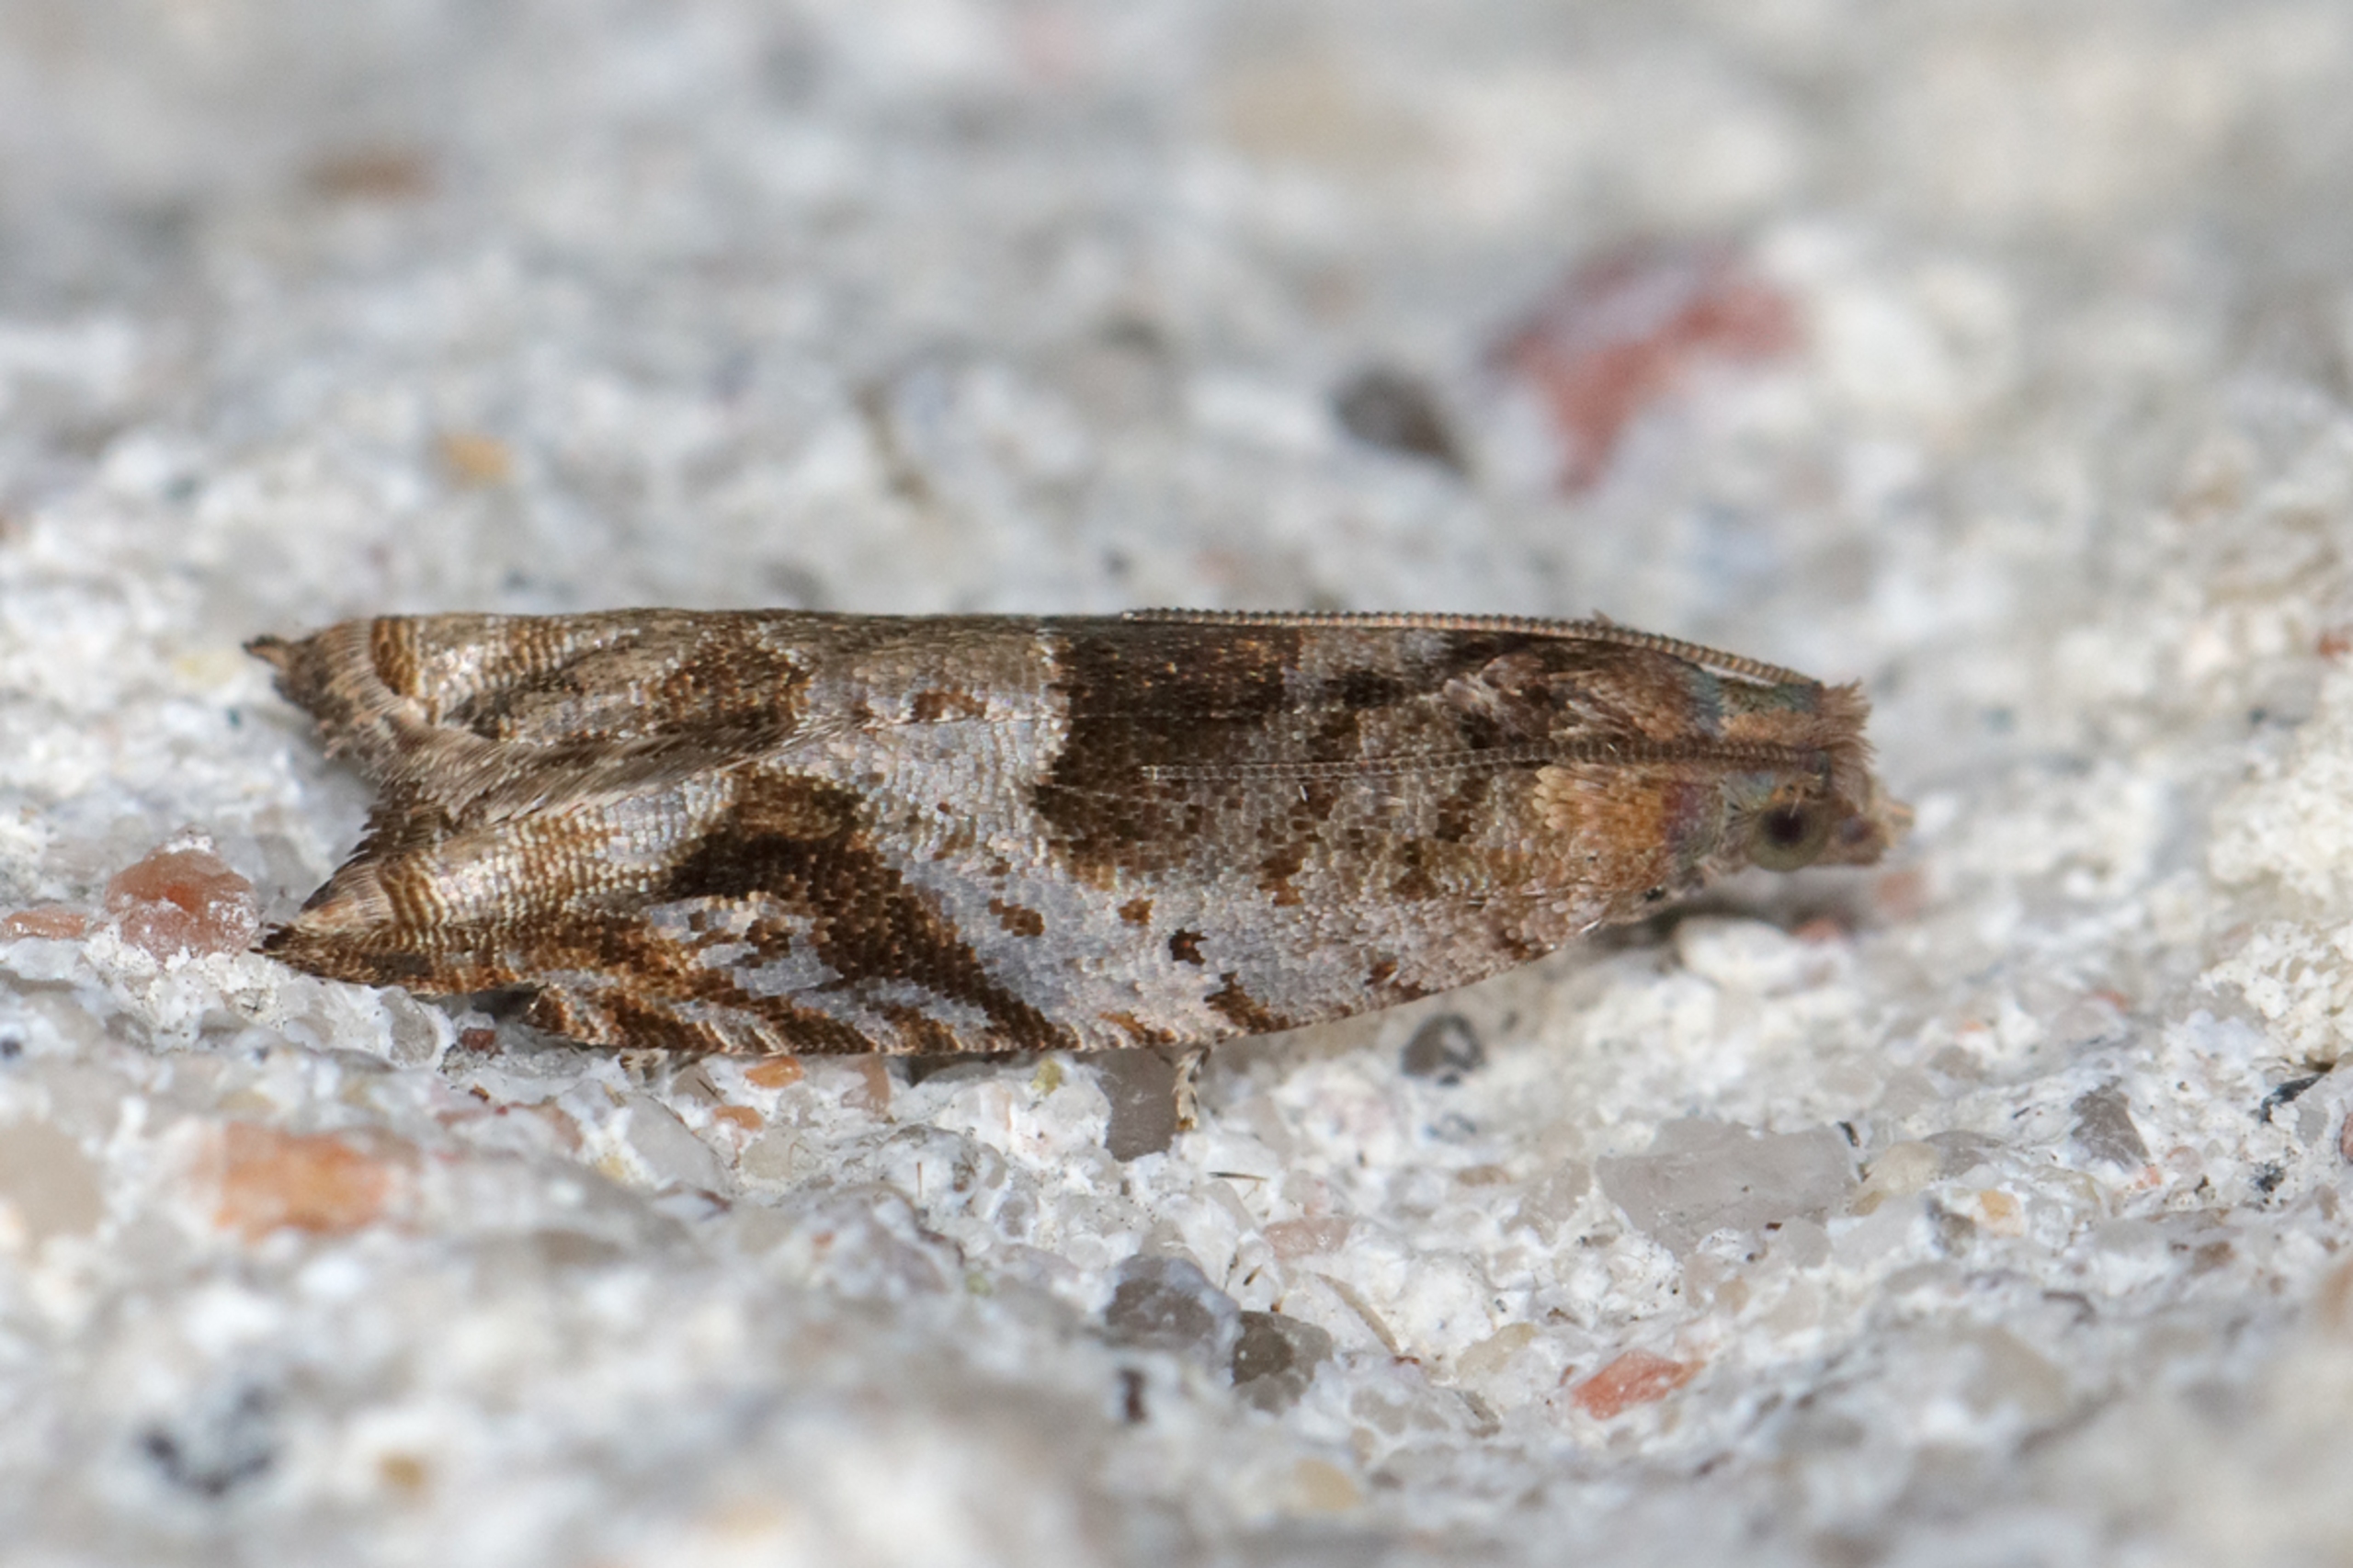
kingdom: Animalia
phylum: Arthropoda
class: Insecta
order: Lepidoptera
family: Tortricidae
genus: Rhopobota
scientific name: Rhopobota naevana
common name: Gulgrå knopvikler
